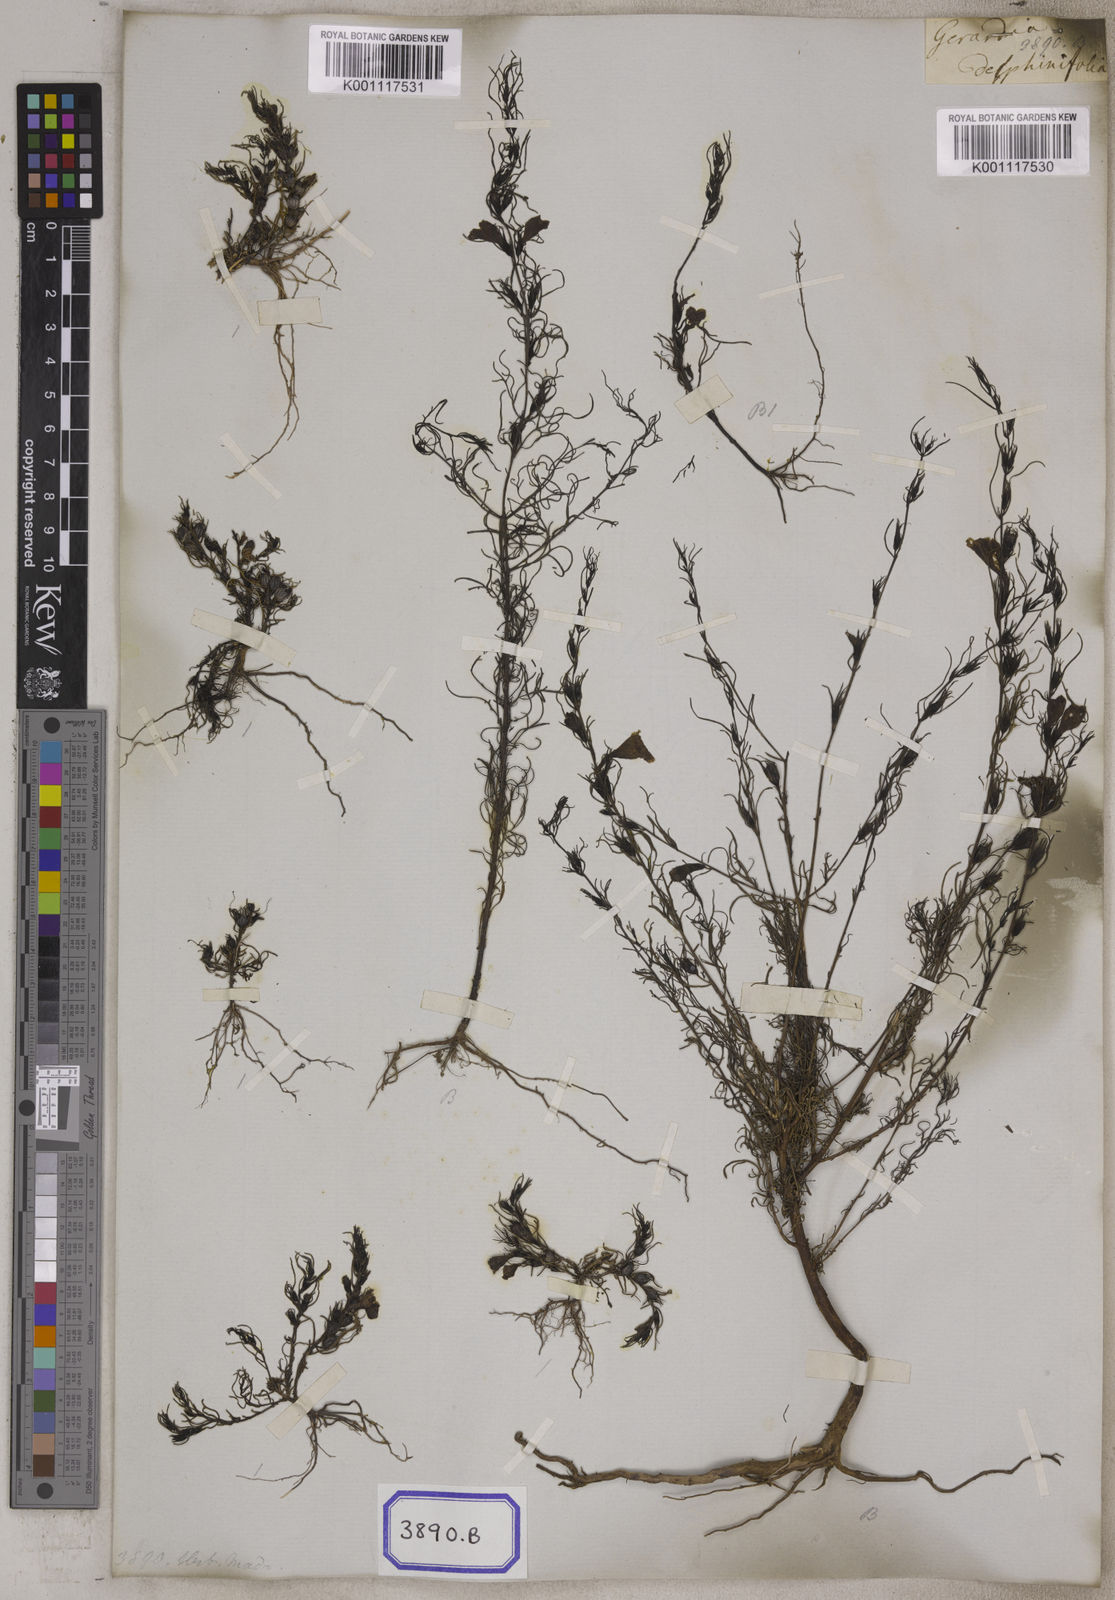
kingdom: Plantae
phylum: Tracheophyta
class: Magnoliopsida
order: Lamiales
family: Orobanchaceae
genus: Parasopubia
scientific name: Parasopubia delphiniifolia
